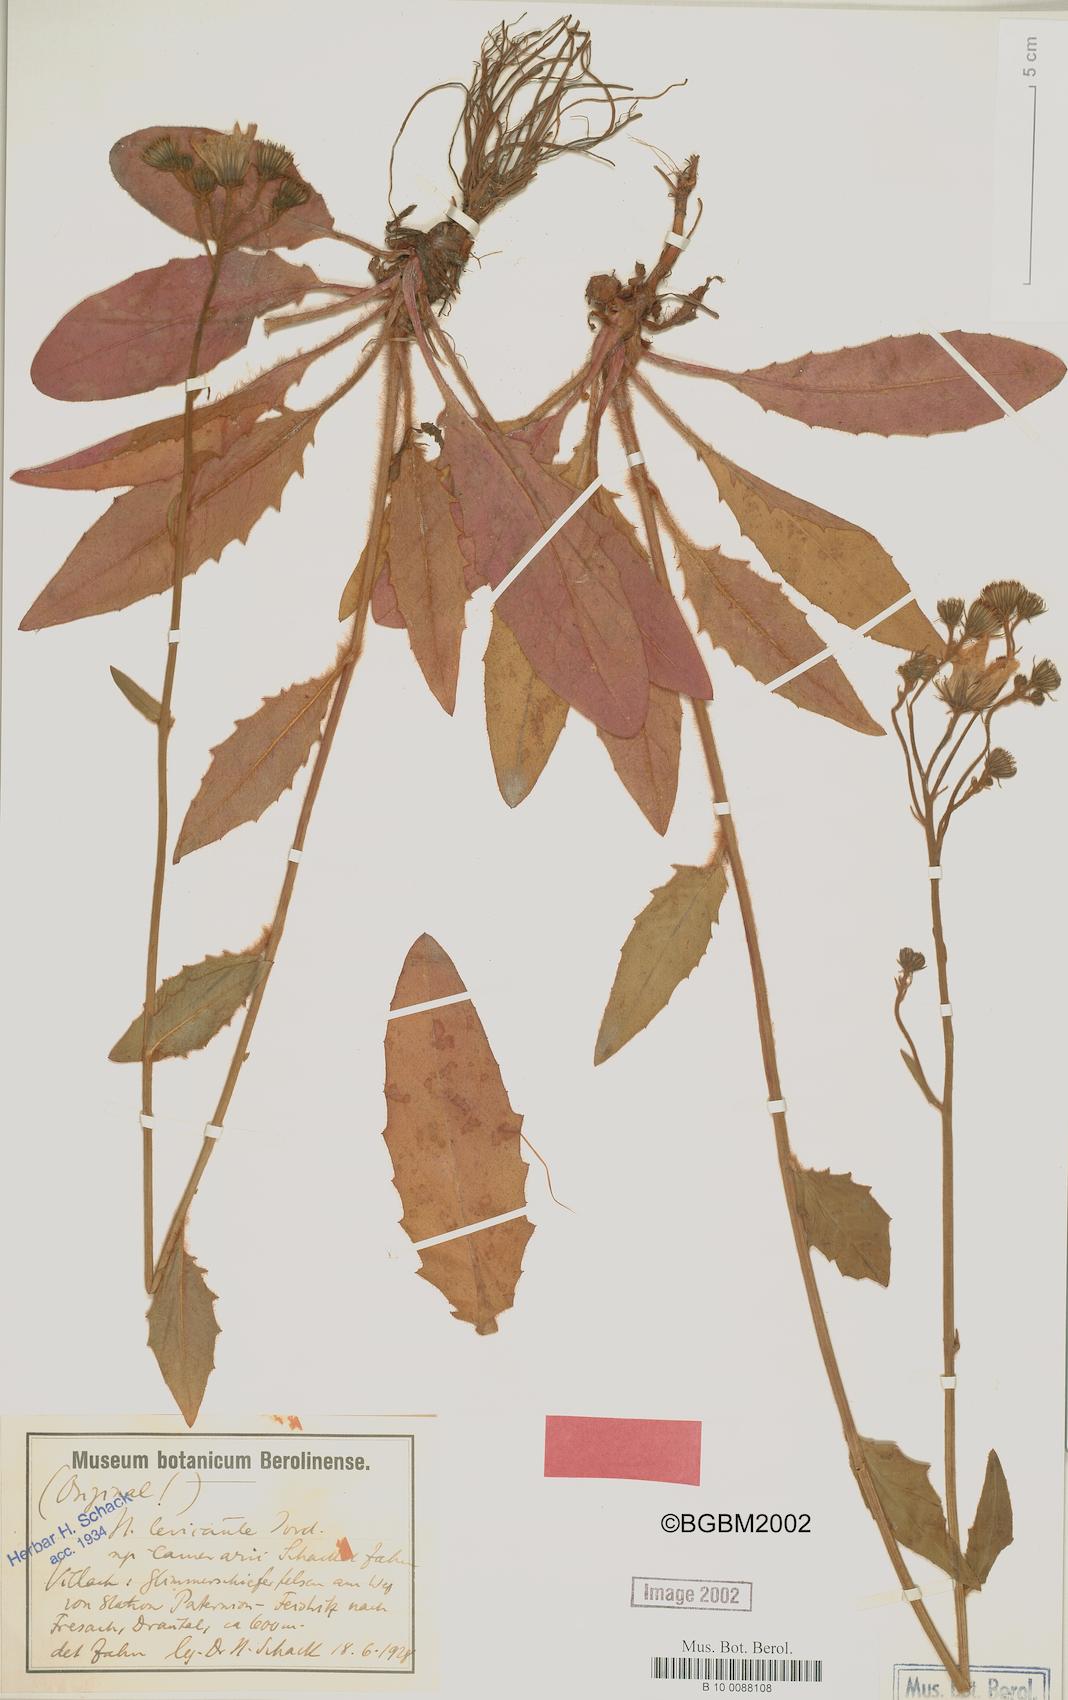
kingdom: Plantae
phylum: Tracheophyta
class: Magnoliopsida
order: Asterales
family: Asteraceae
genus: Hieracium
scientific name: Hieracium levicaule
